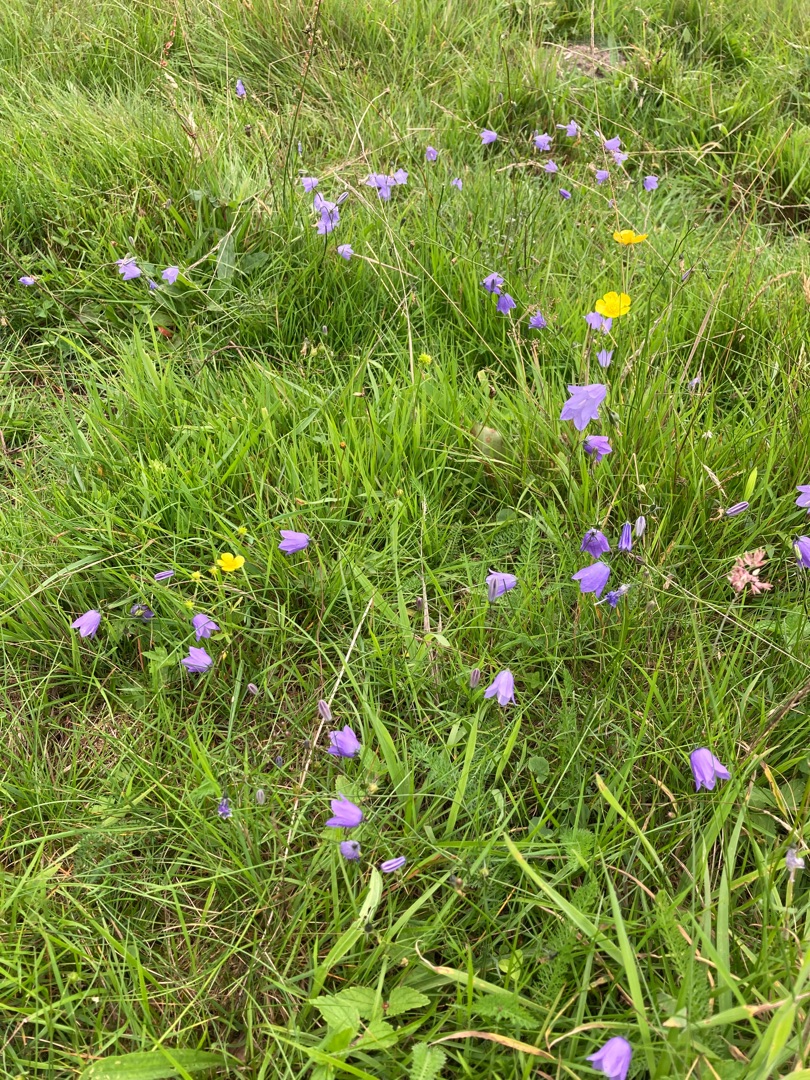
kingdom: Plantae
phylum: Tracheophyta
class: Magnoliopsida
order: Asterales
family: Campanulaceae
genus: Campanula
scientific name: Campanula rotundifolia
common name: Liden klokke
